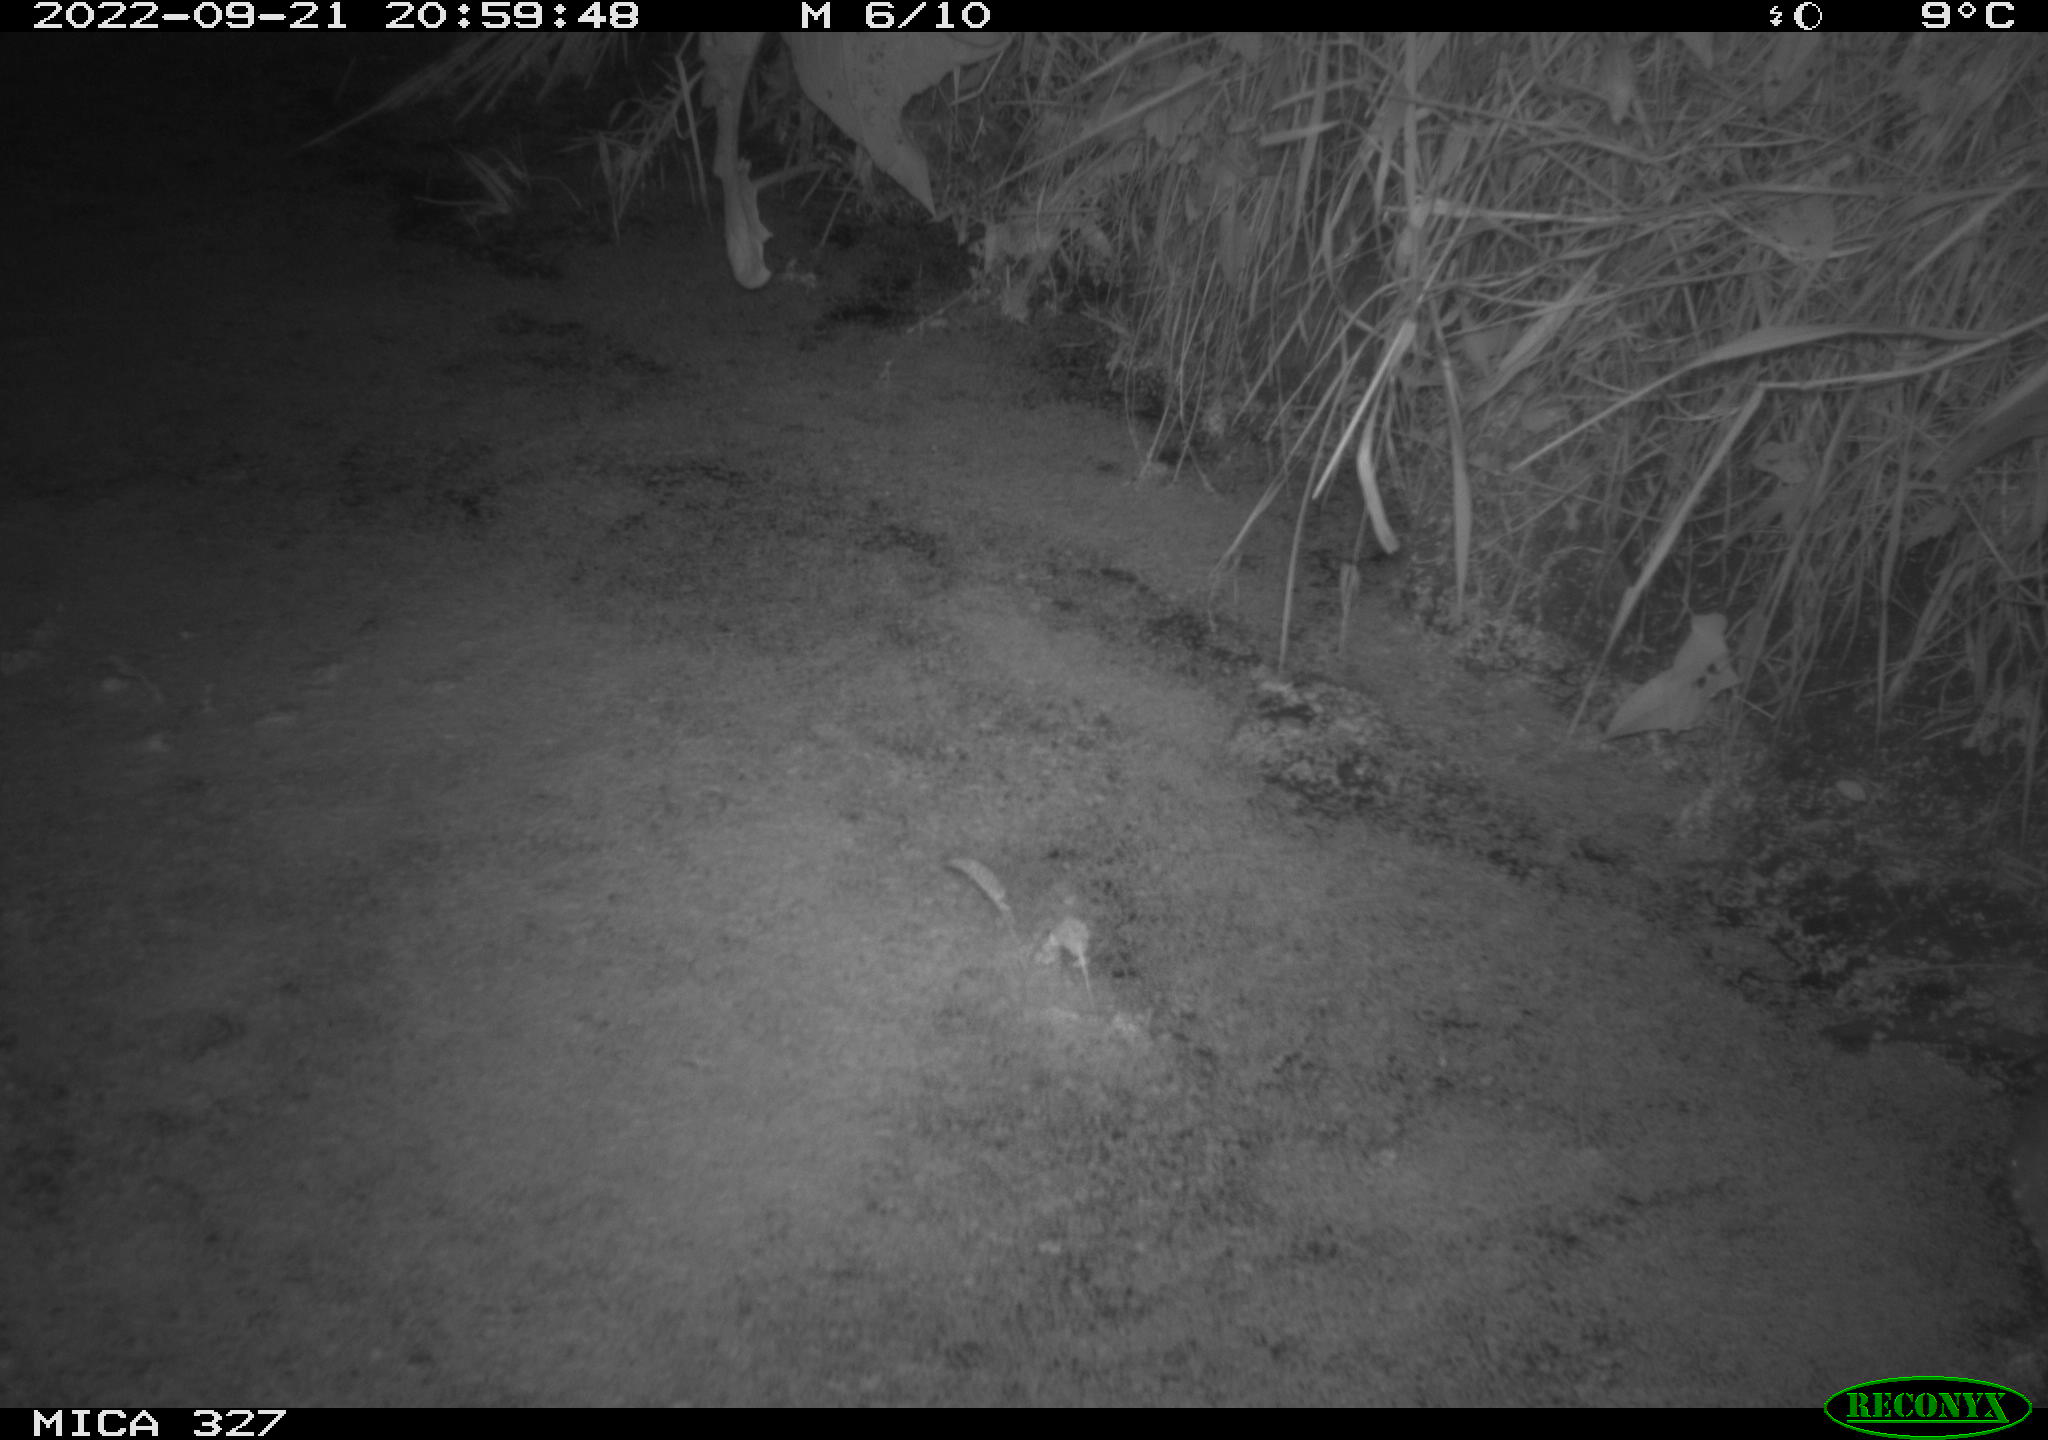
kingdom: Animalia
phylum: Chordata
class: Mammalia
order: Rodentia
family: Cricetidae
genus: Ondatra
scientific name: Ondatra zibethicus
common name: Muskrat
